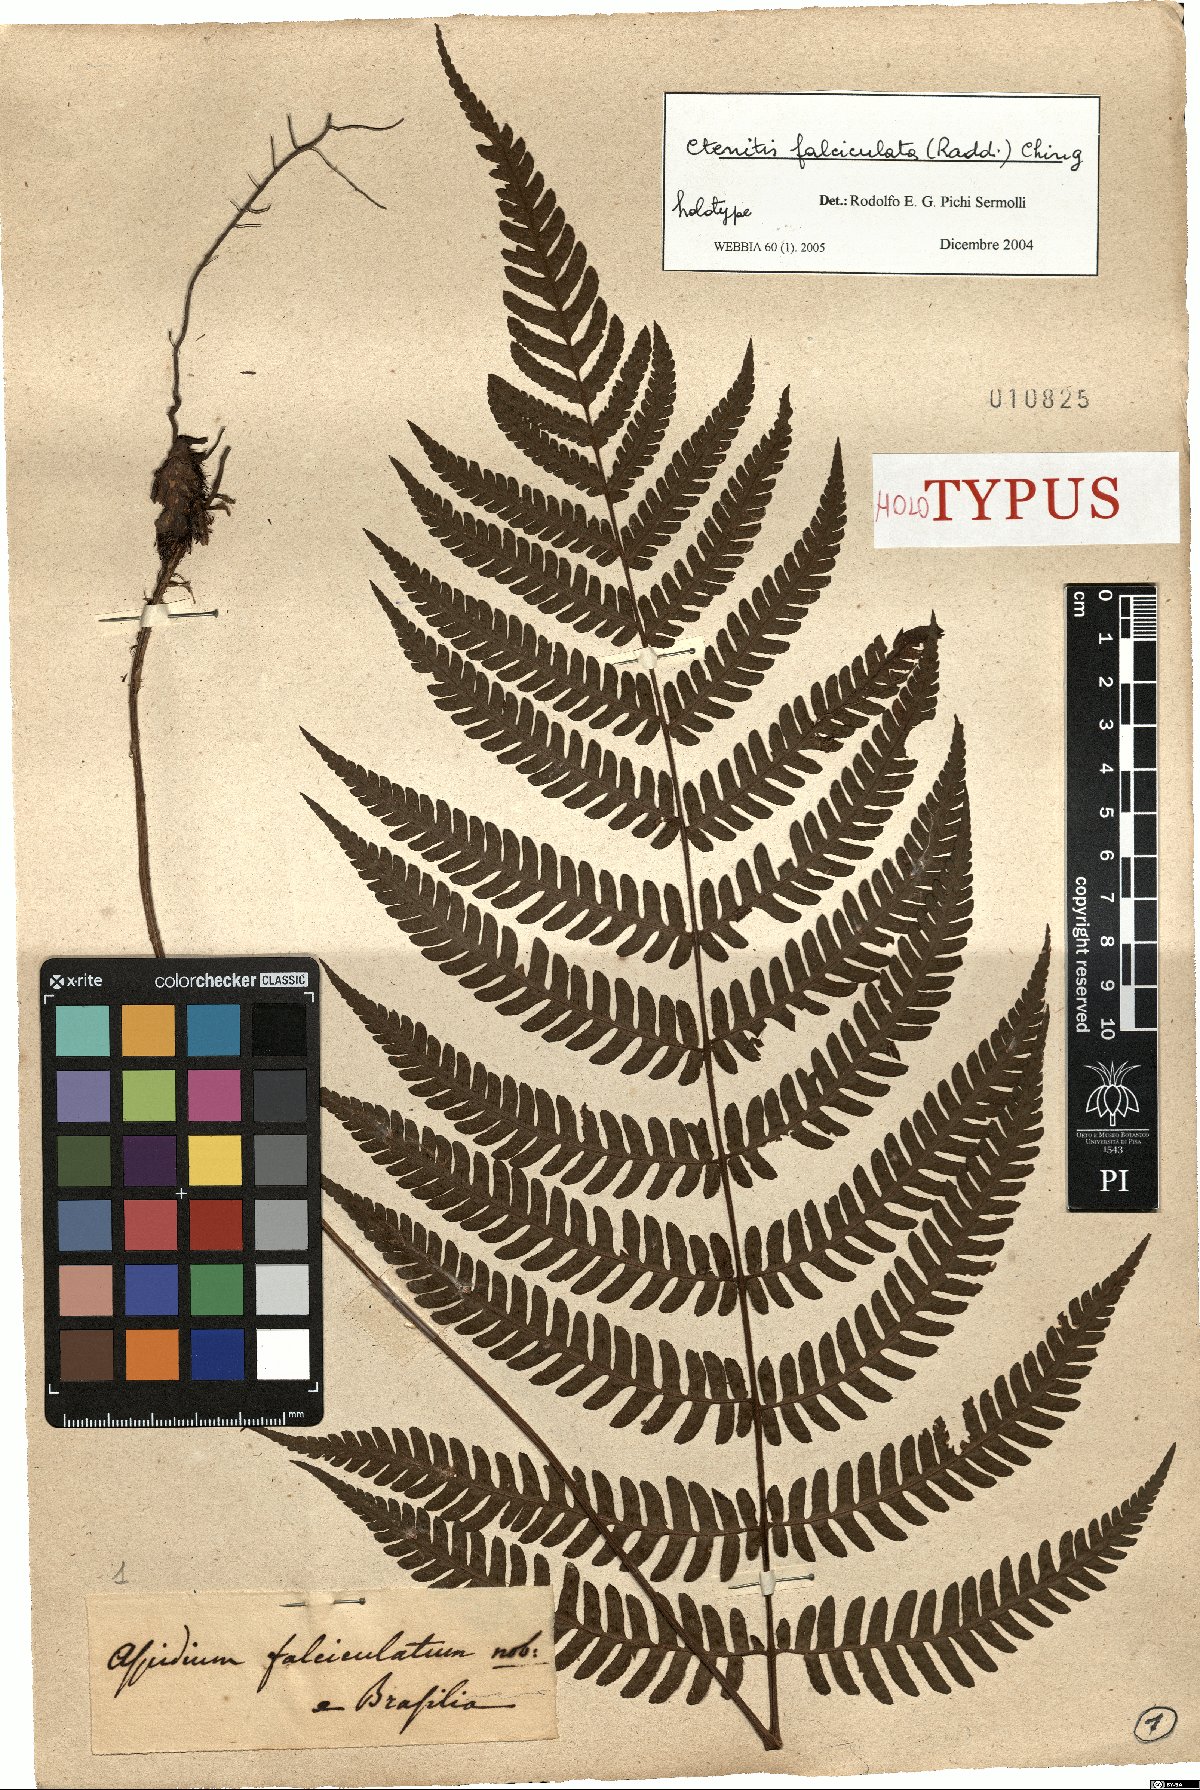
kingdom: Plantae
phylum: Tracheophyta
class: Polypodiopsida
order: Polypodiales
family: Dryopteridaceae
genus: Ctenitis
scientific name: Ctenitis falciculata
